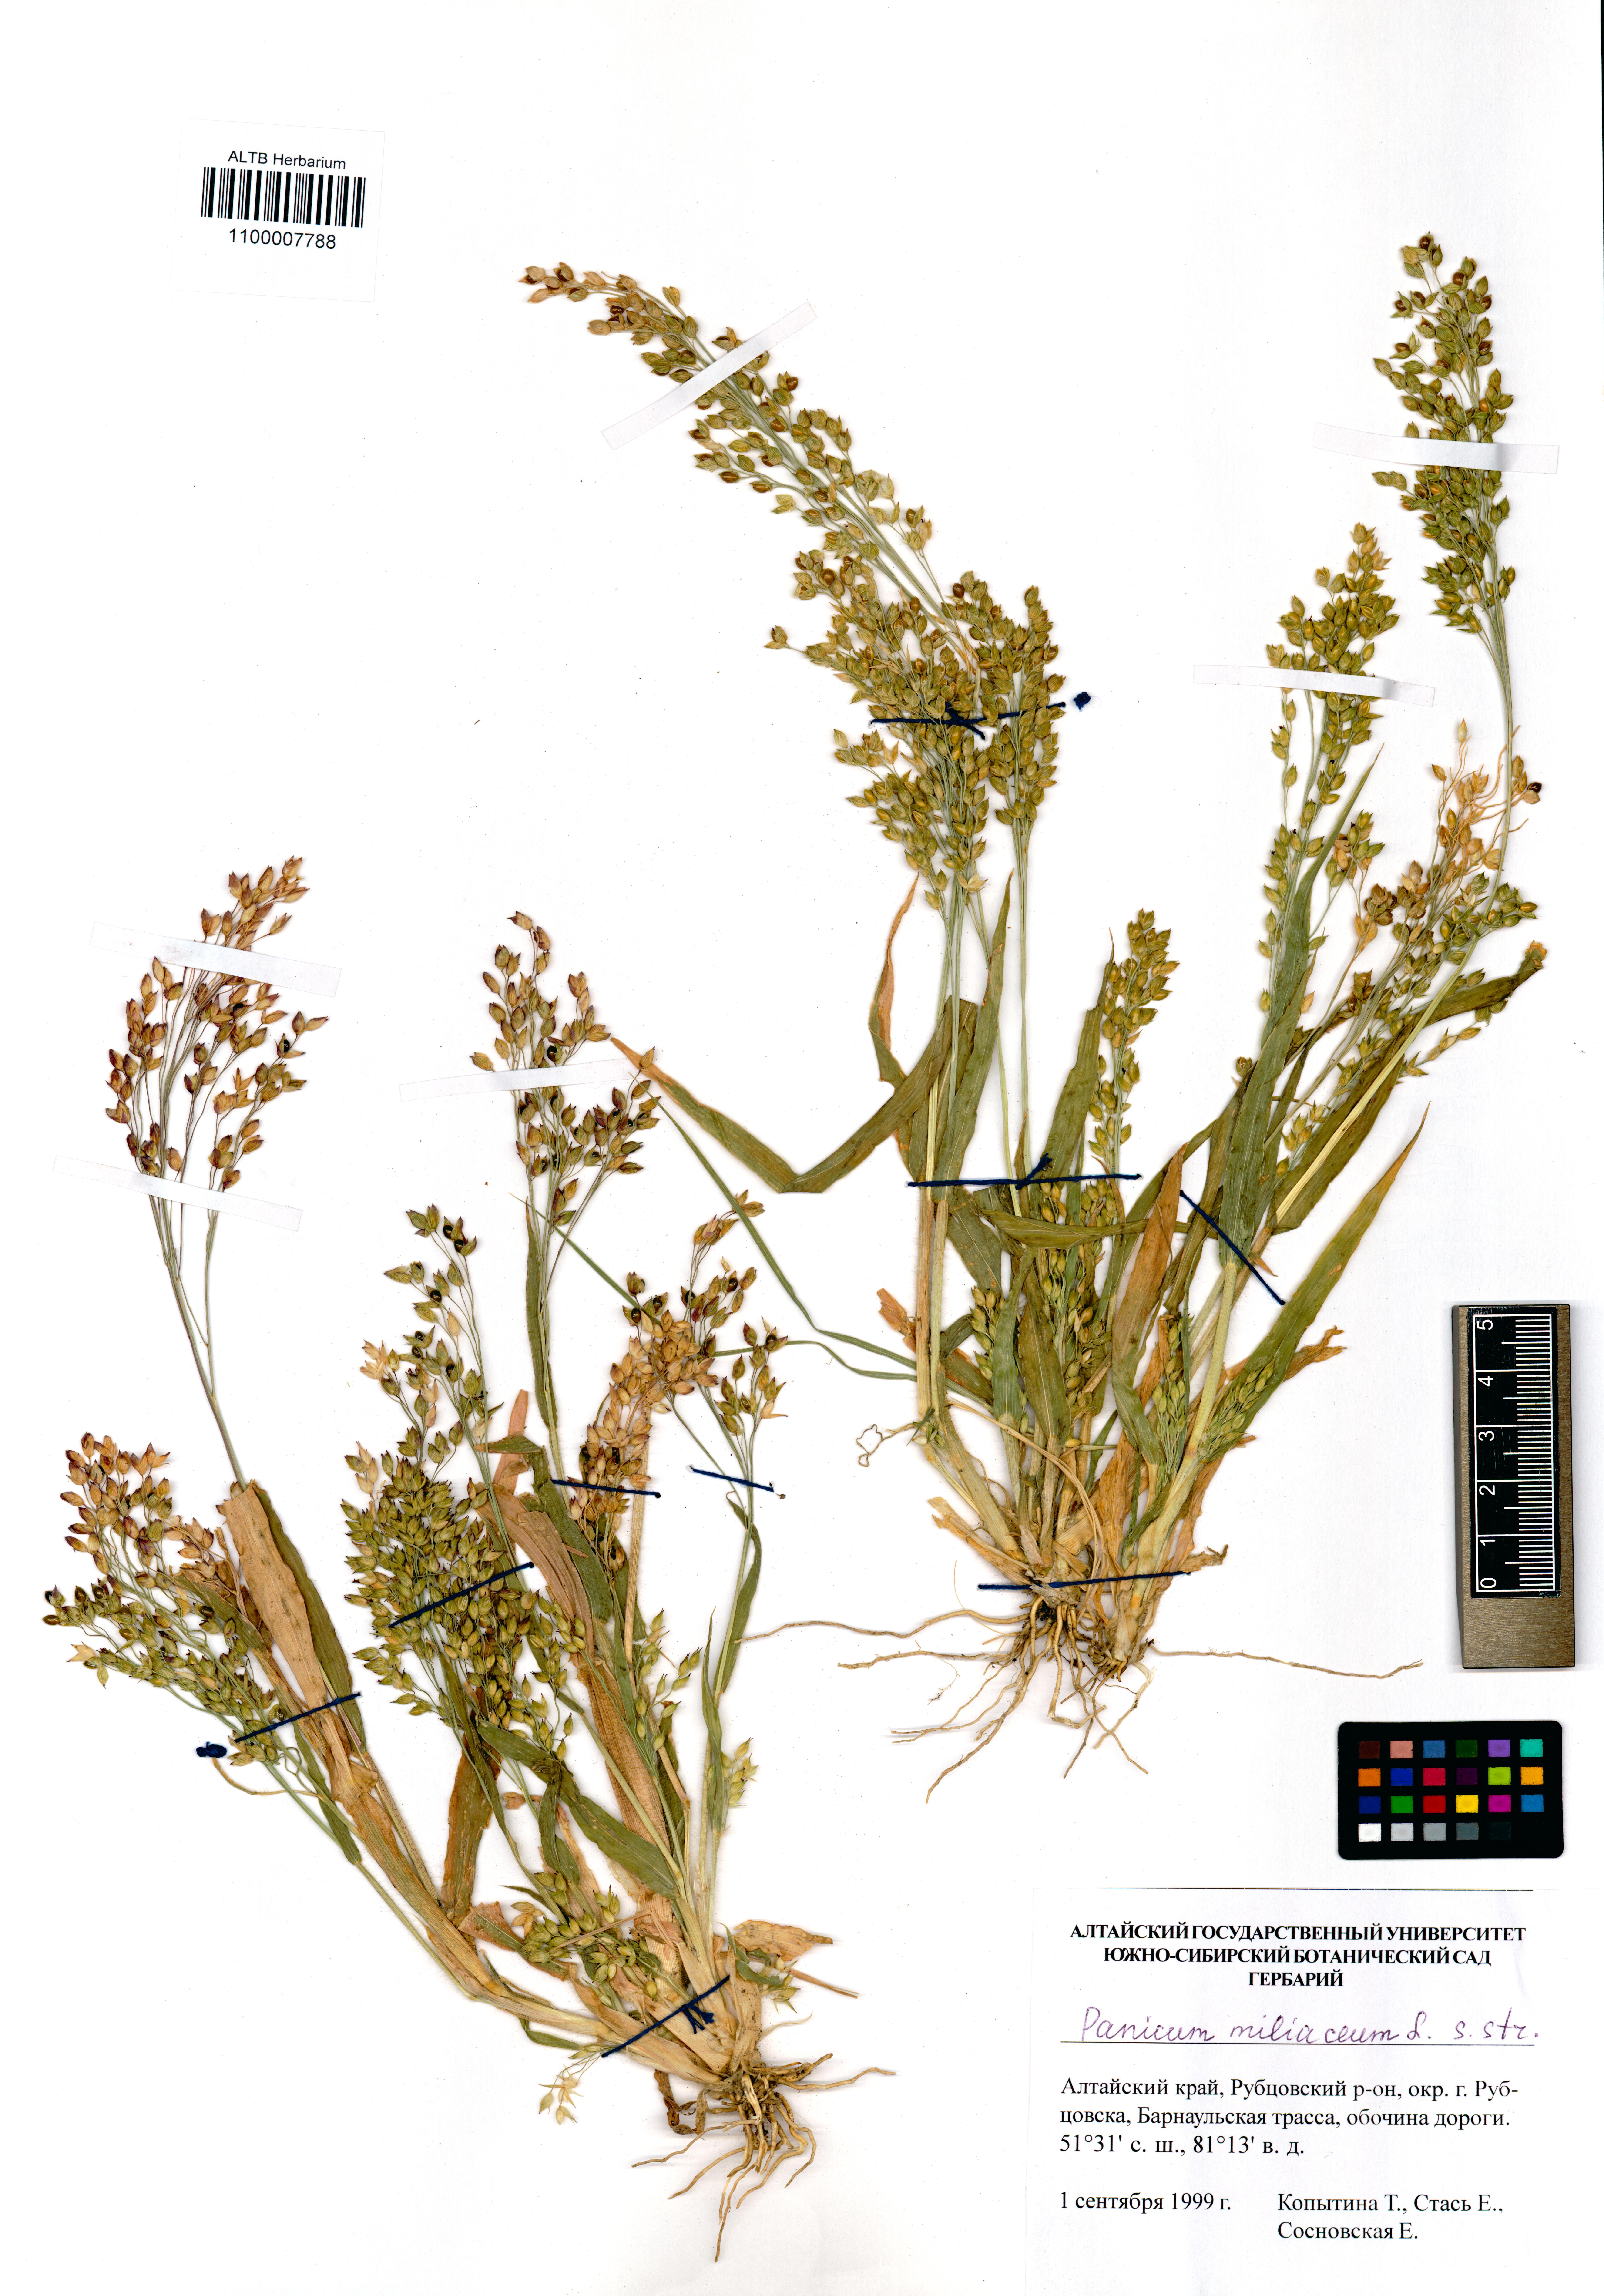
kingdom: Plantae
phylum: Tracheophyta
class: Liliopsida
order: Poales
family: Poaceae
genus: Panicum
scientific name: Panicum miliaceum
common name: Common millet
